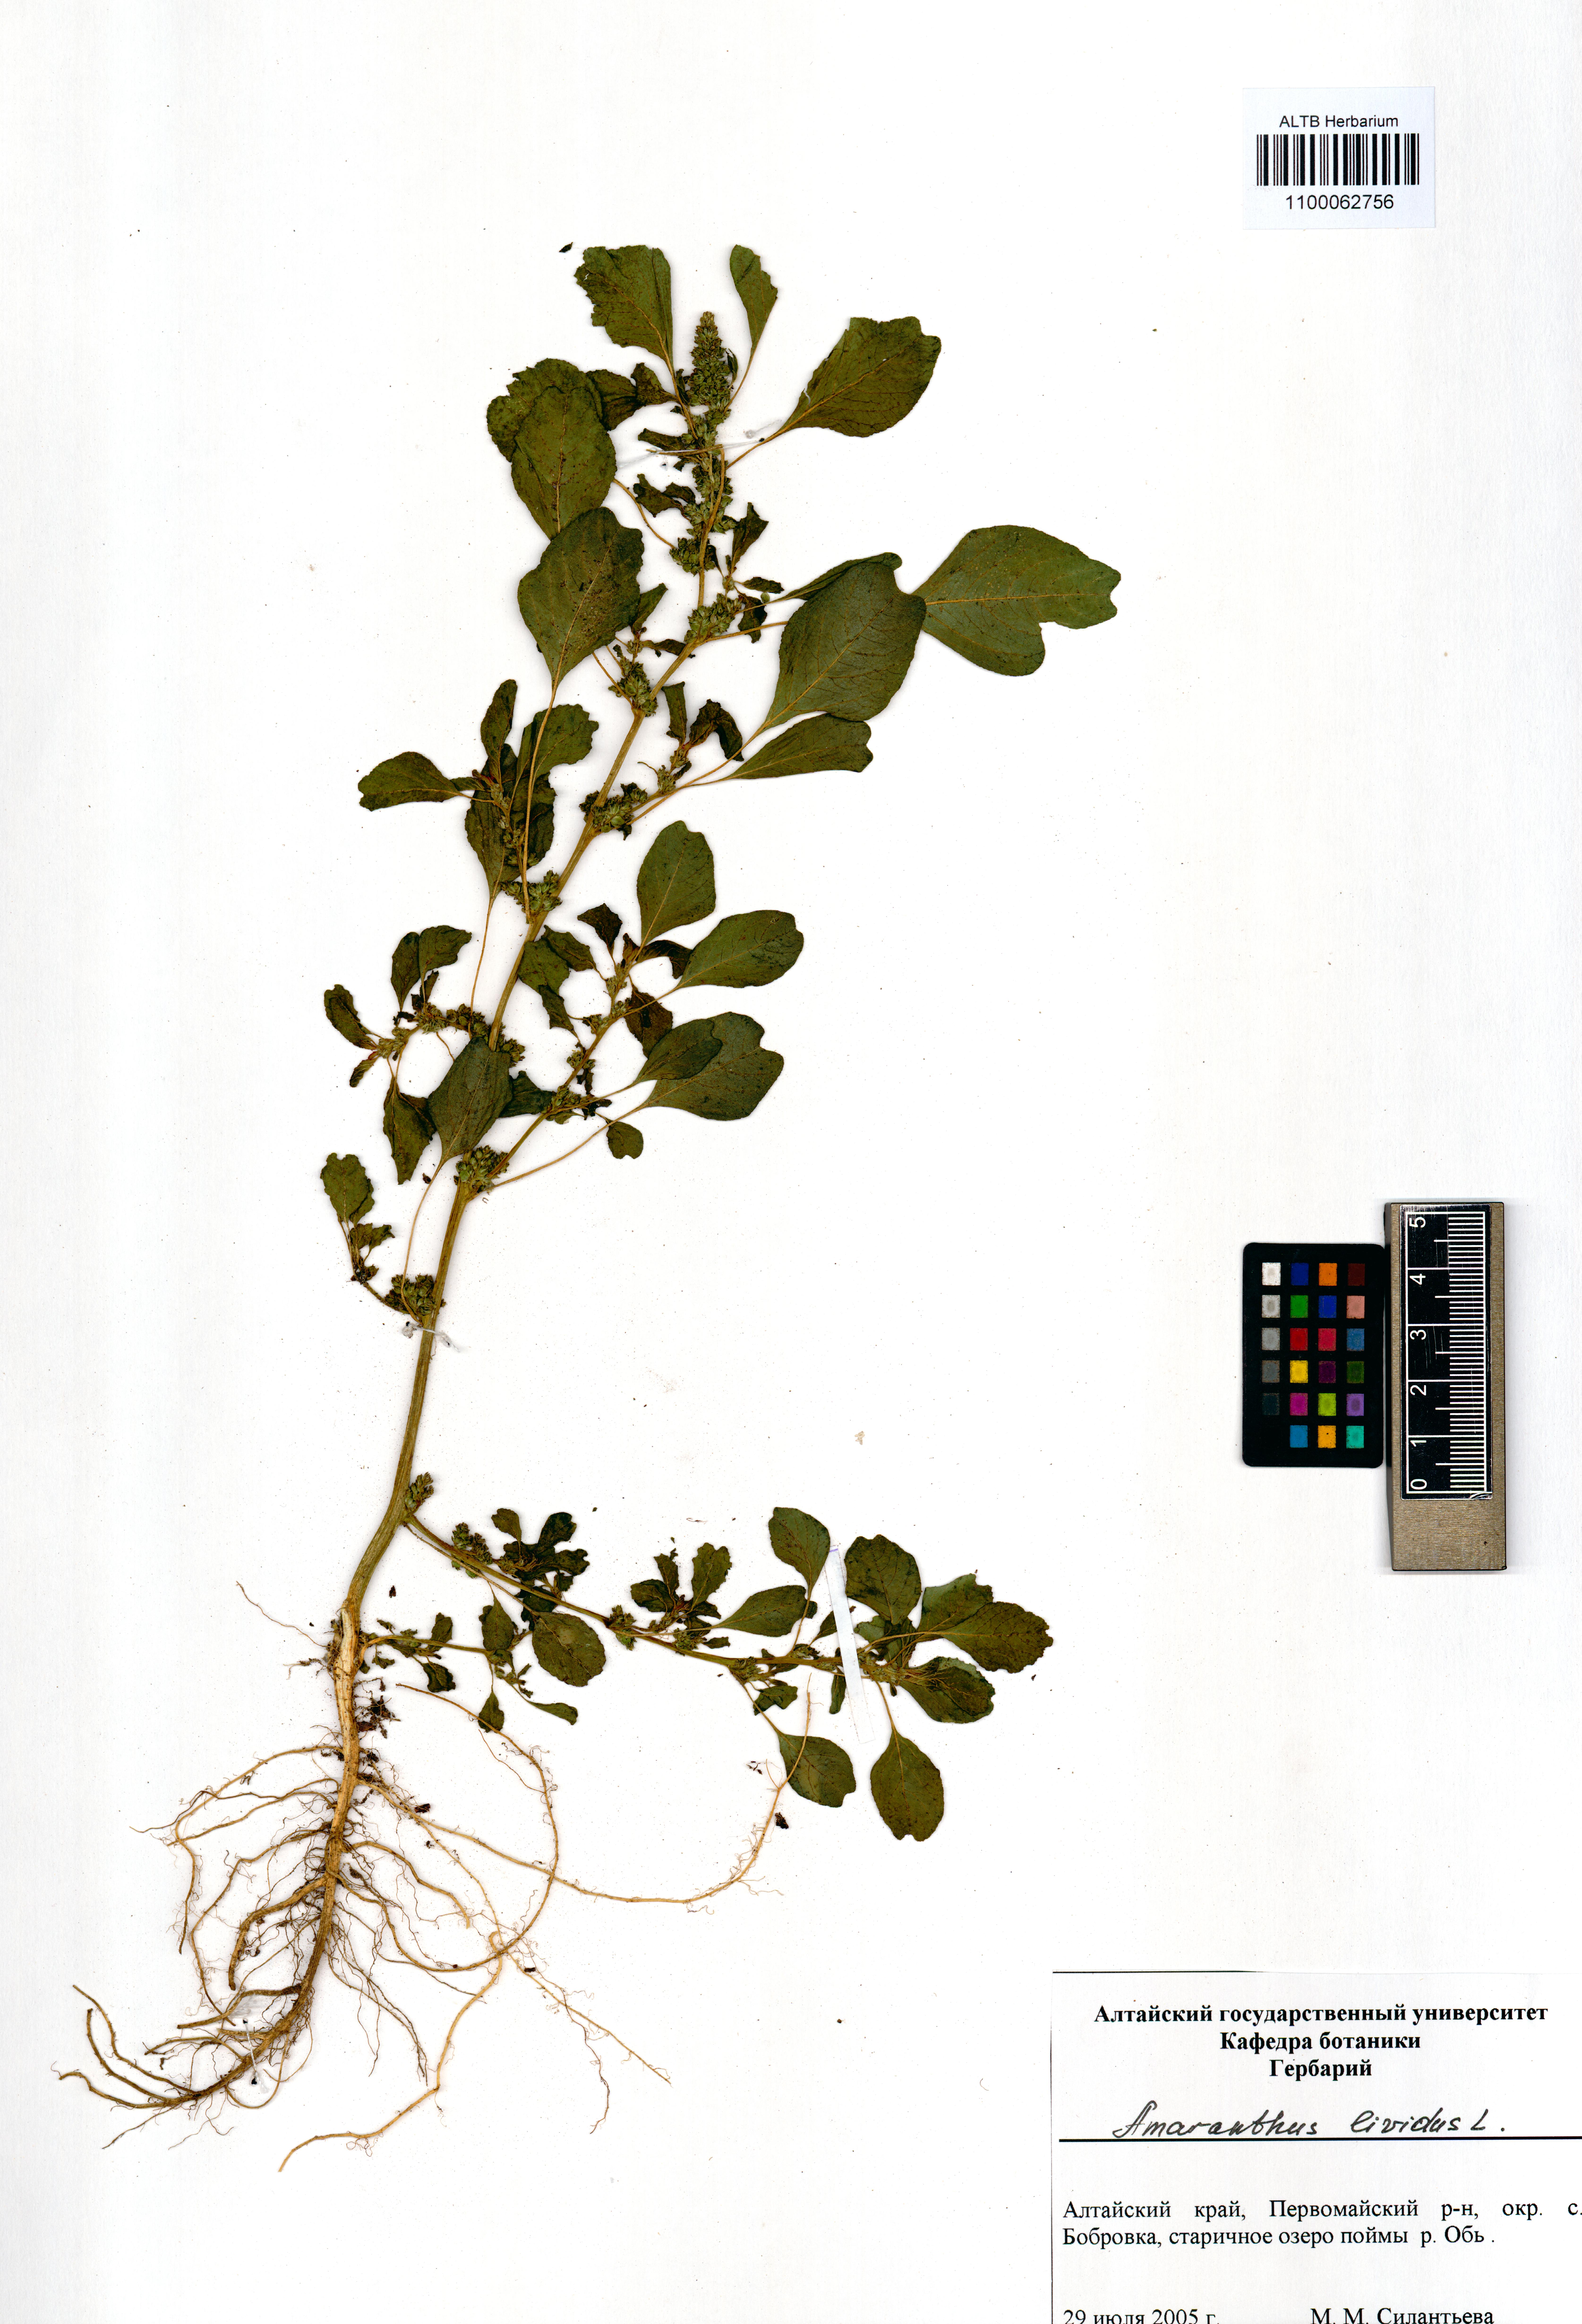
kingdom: Plantae
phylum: Tracheophyta
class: Magnoliopsida
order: Caryophyllales
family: Amaranthaceae
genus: Amaranthus
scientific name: Amaranthus blitum
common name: Purple amaranth
